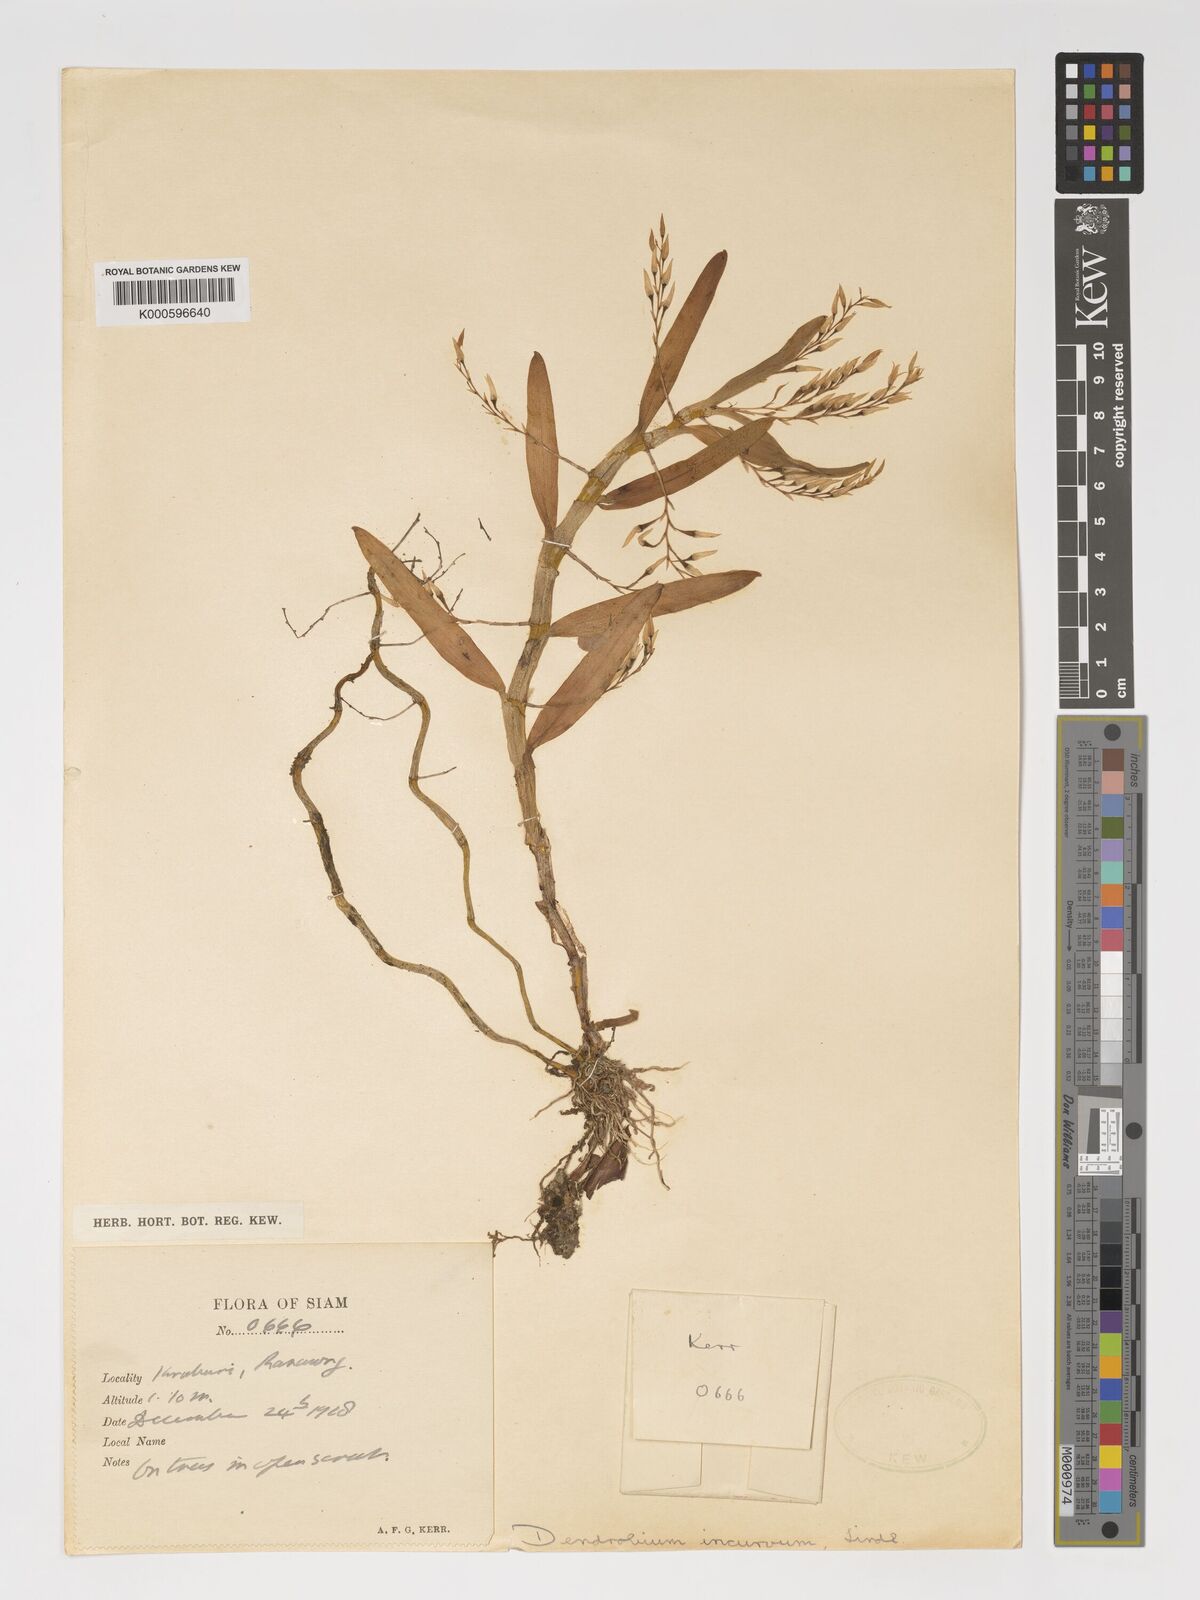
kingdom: Plantae
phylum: Tracheophyta
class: Liliopsida
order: Asparagales
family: Orchidaceae
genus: Dendrobium
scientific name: Dendrobium incurvum
